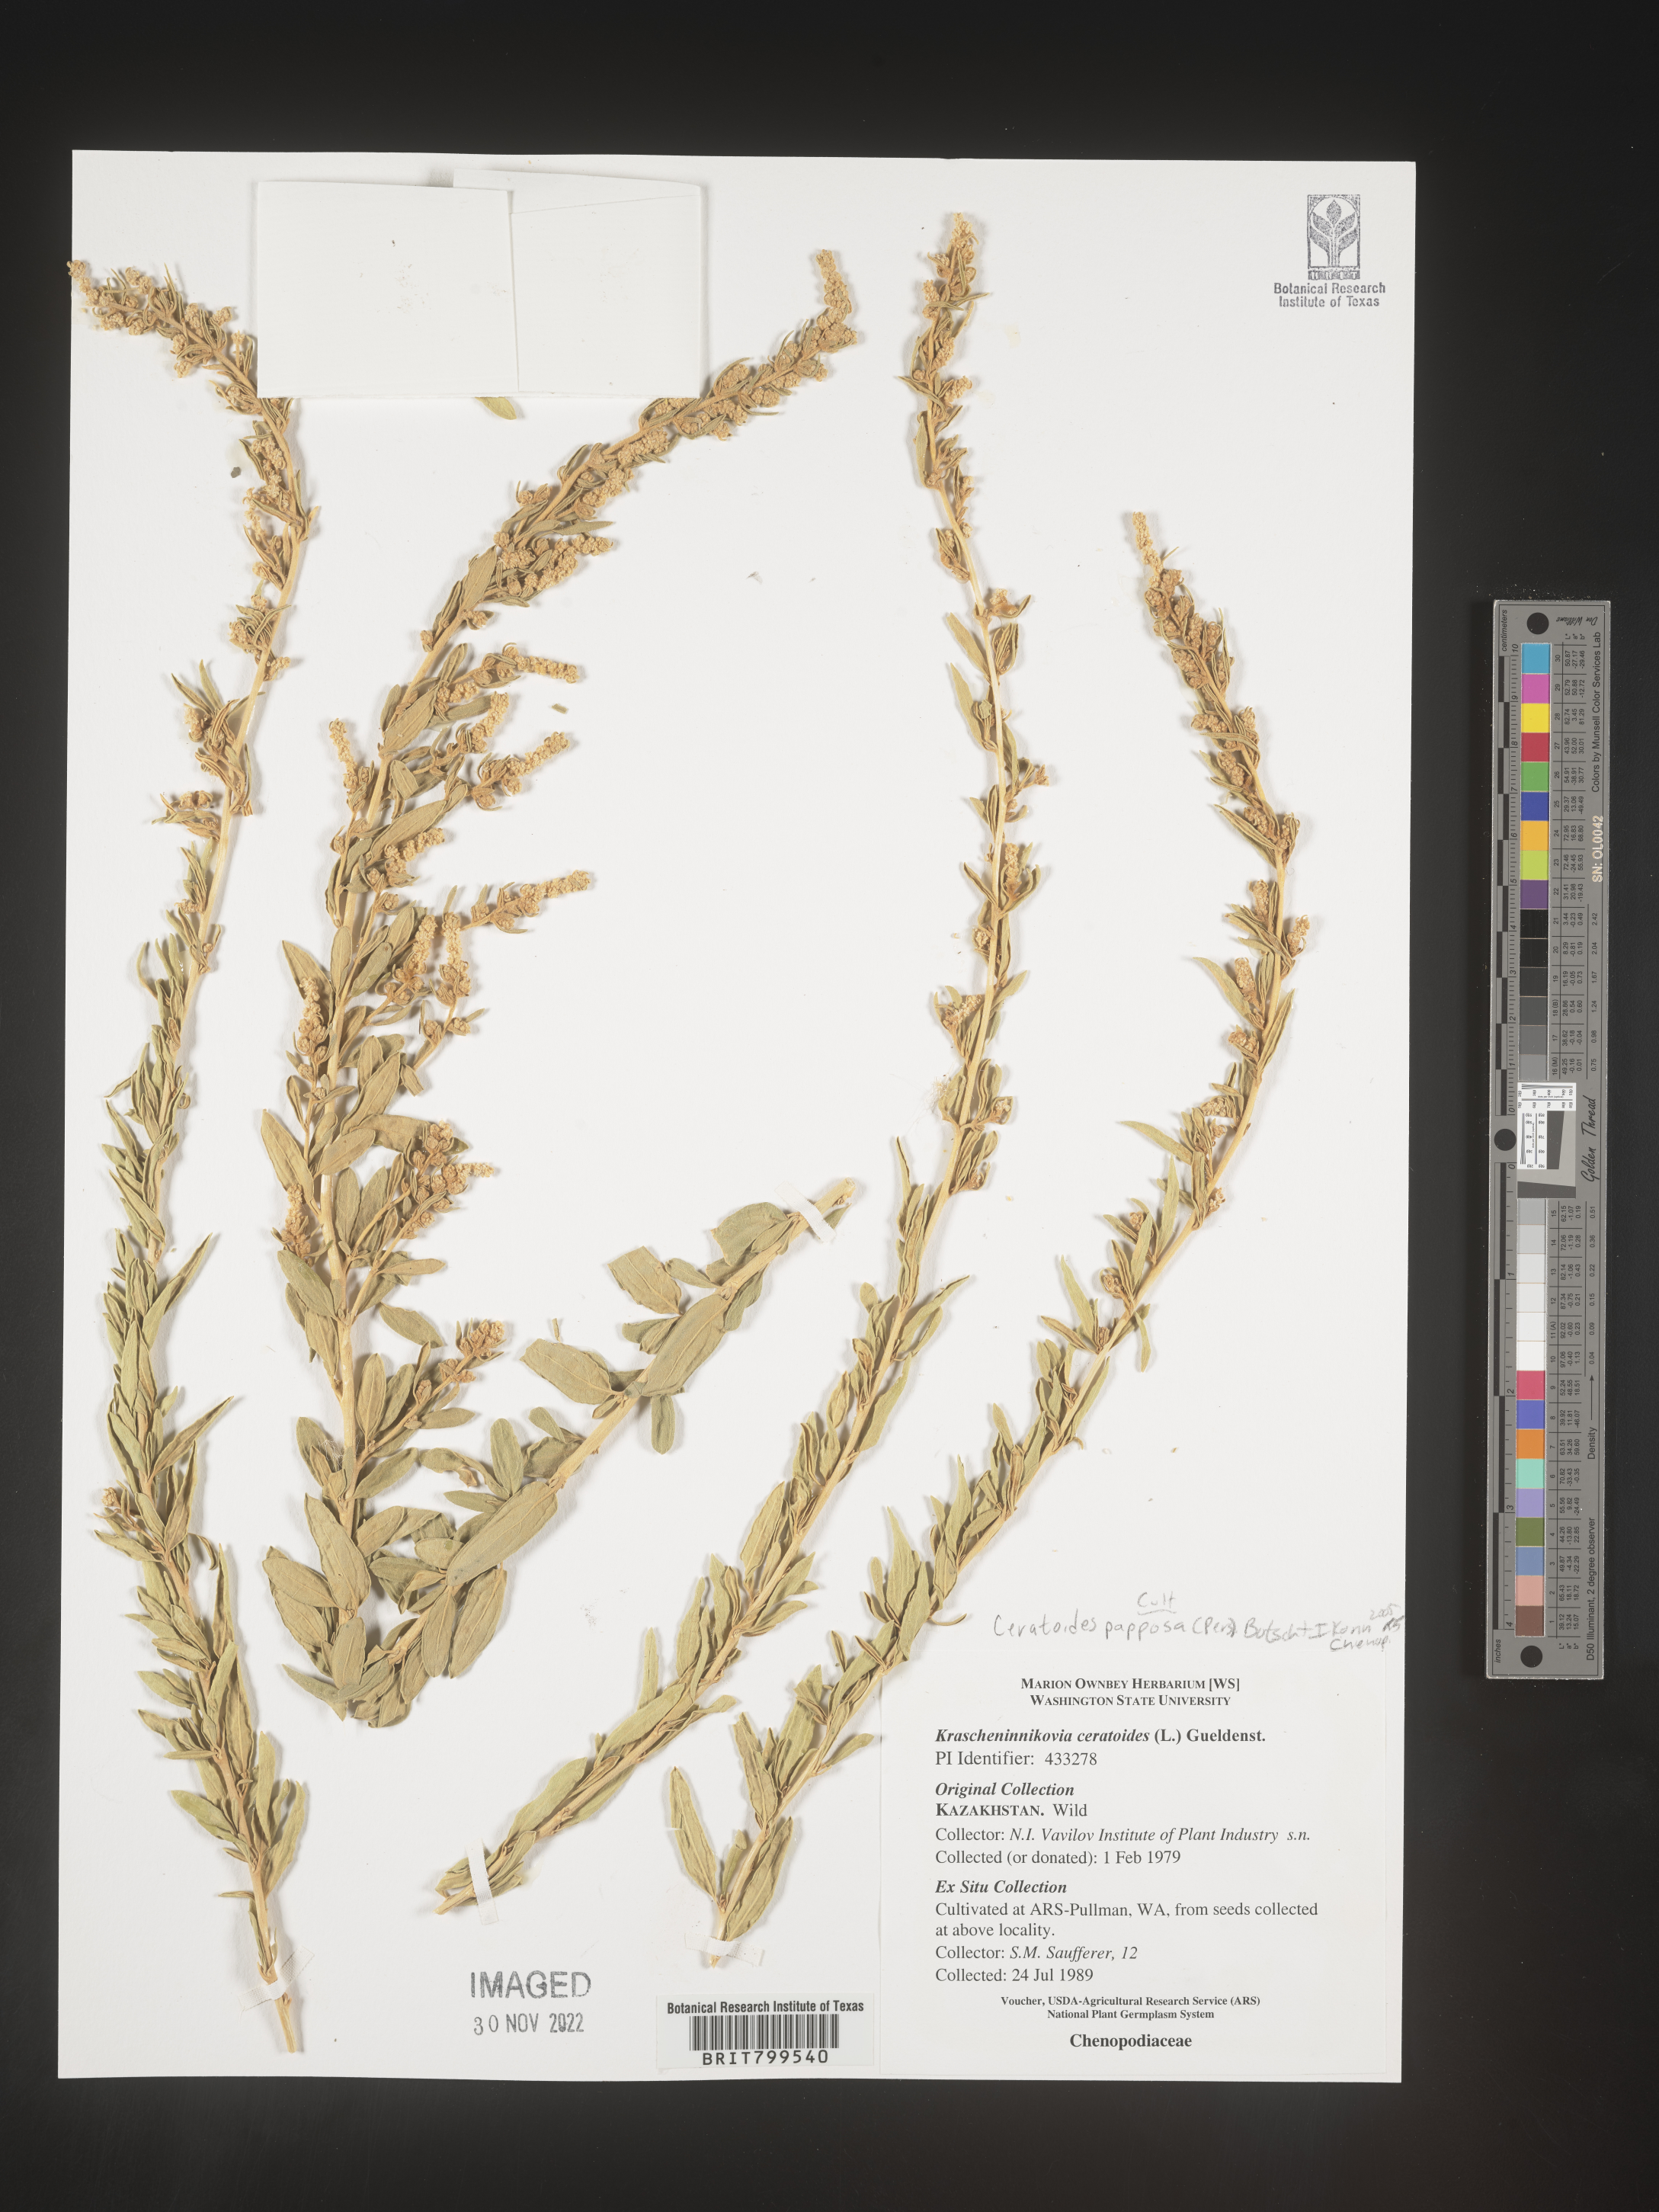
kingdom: Plantae
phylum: Tracheophyta
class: Magnoliopsida
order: Caryophyllales
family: Amaranthaceae
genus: Krascheninnikovia
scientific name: Krascheninnikovia
